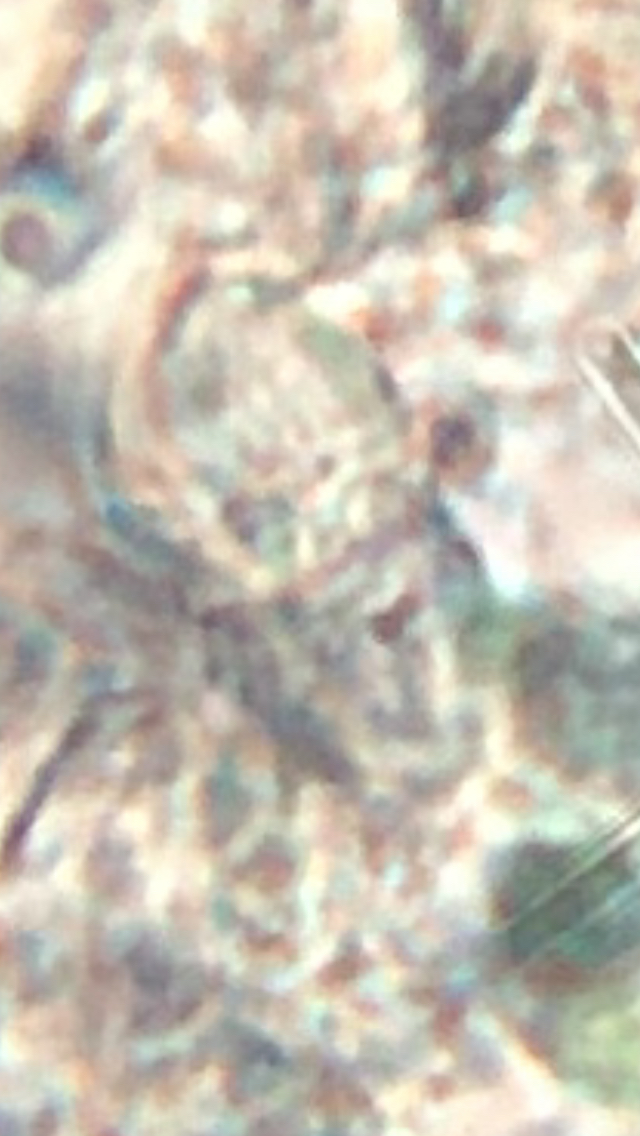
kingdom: Fungi
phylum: Ascomycota
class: Sordariomycetes
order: Hypocreales
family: Nectriaceae
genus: Dialonectria
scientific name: Dialonectria episphaeria
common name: kulskorpe-cinnobersvamp
